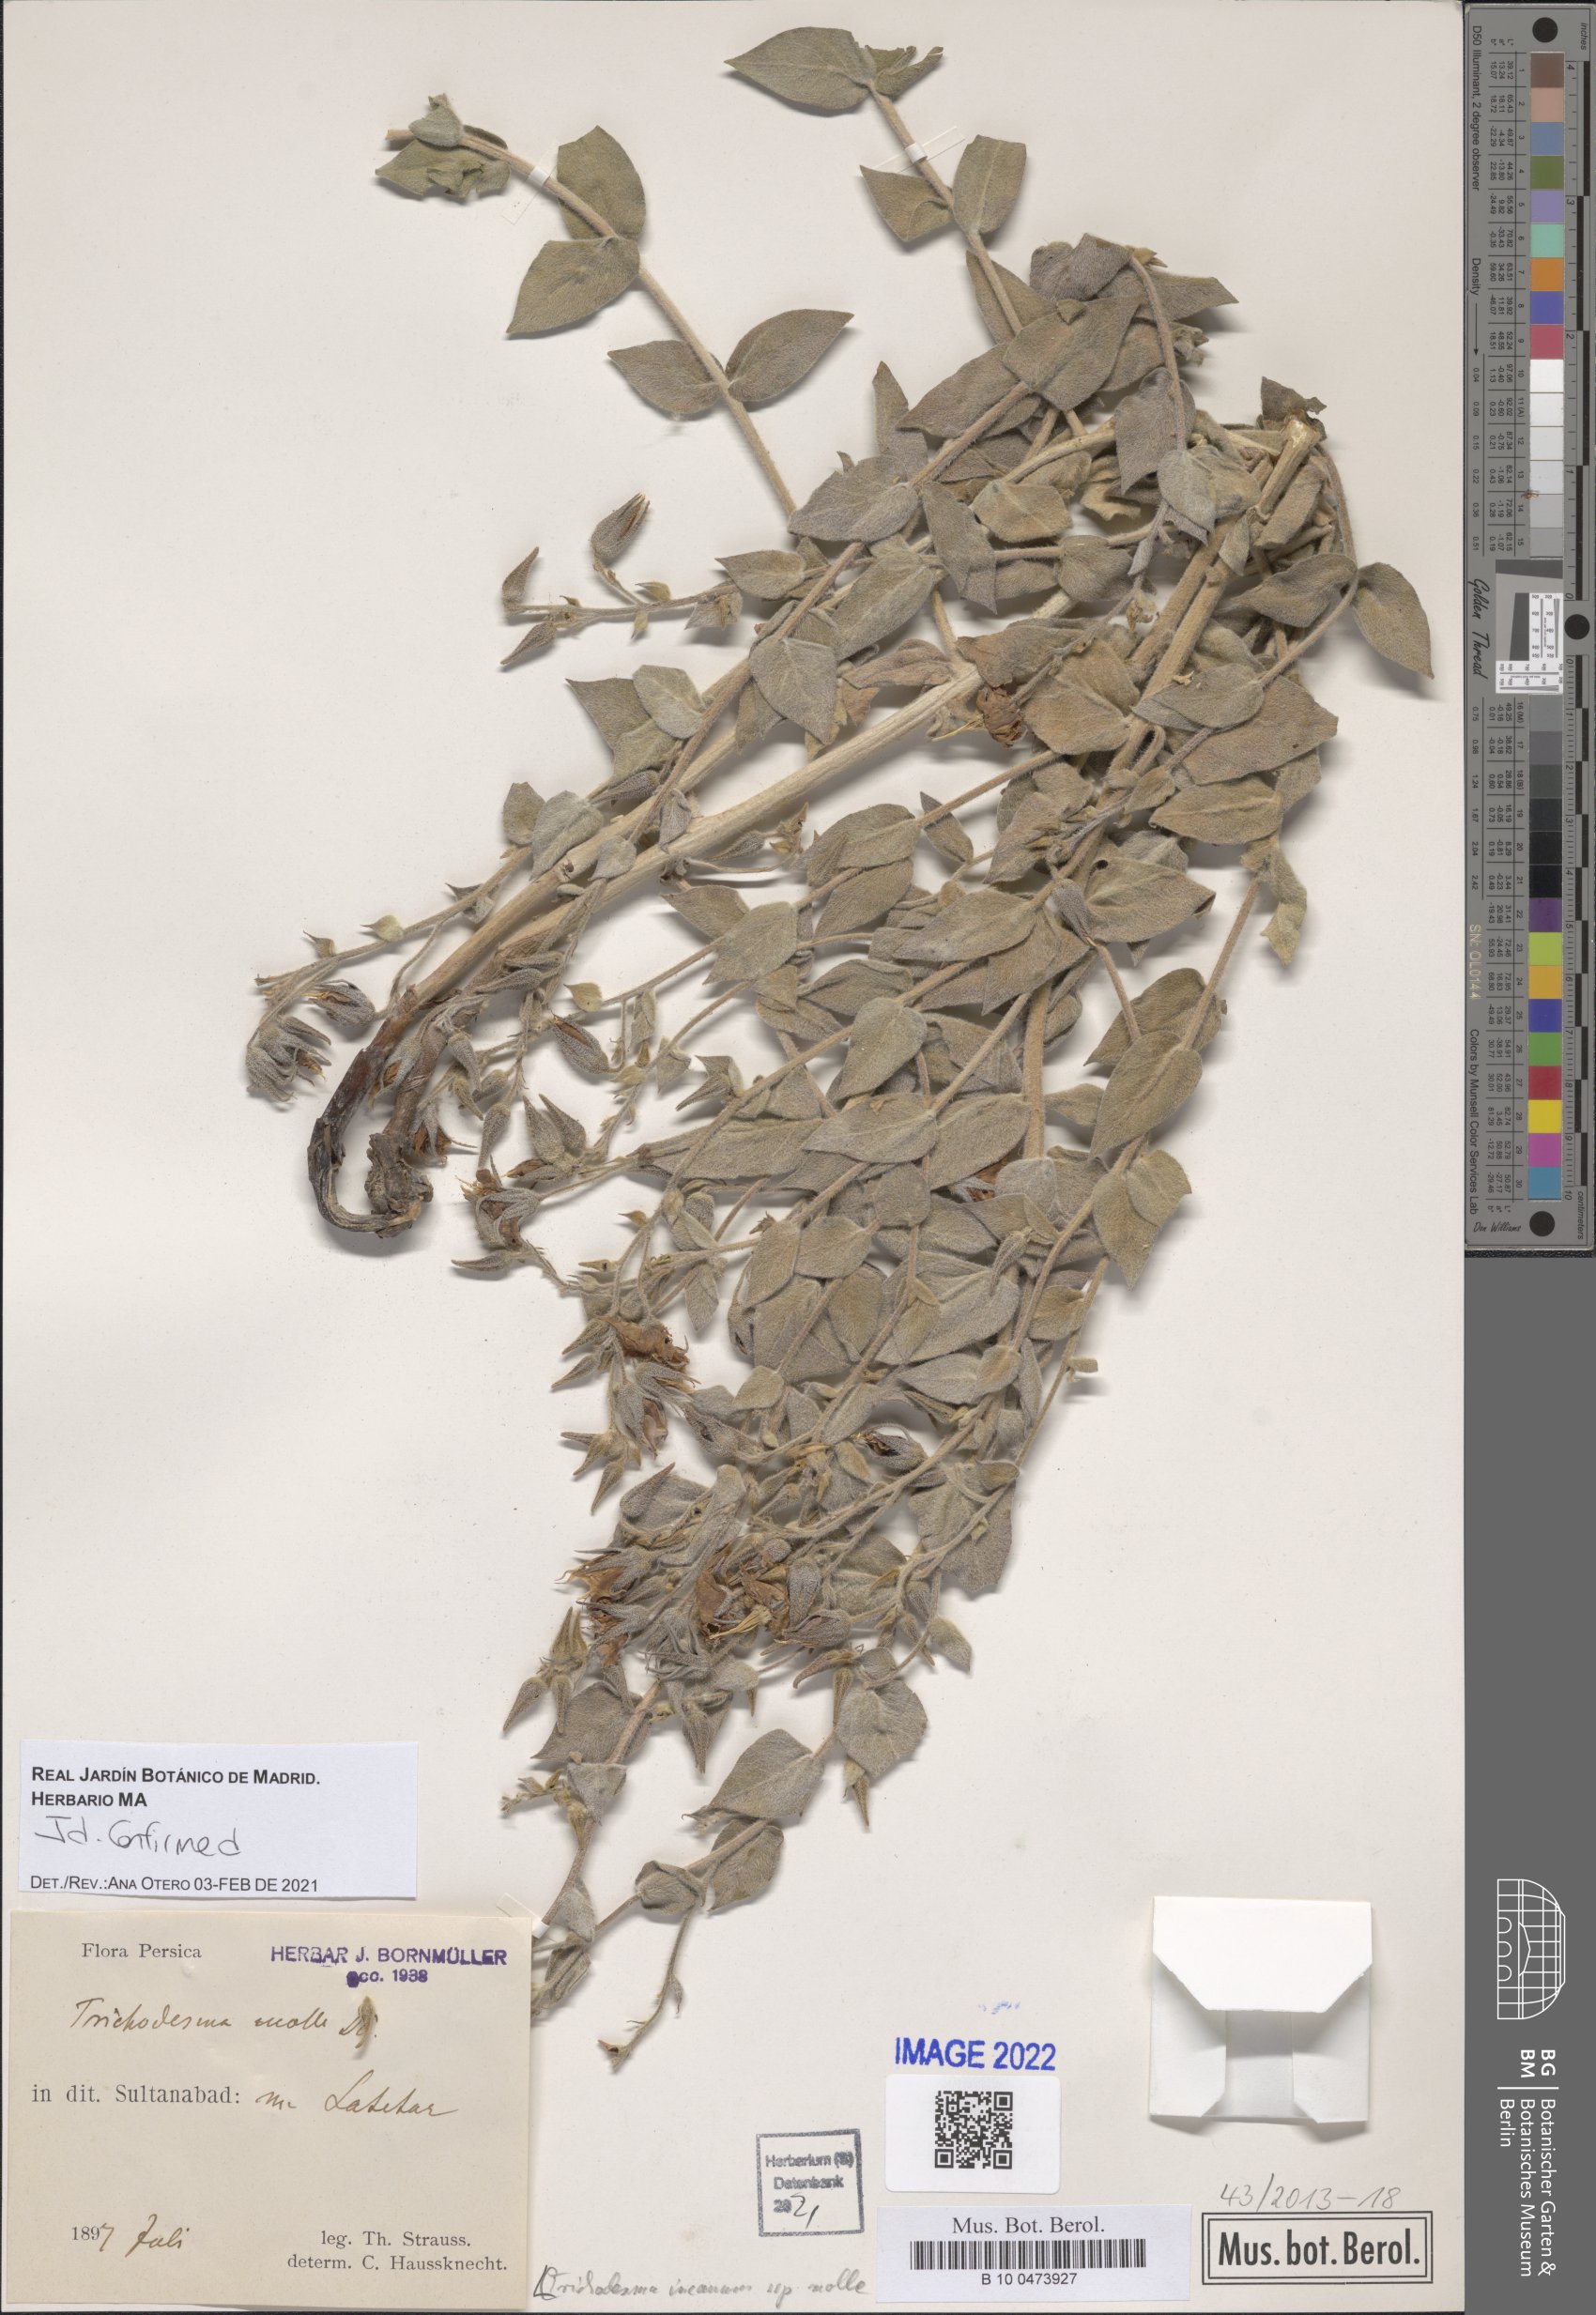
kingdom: Plantae
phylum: Tracheophyta
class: Magnoliopsida
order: Boraginales
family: Boraginaceae
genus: Trichodesma
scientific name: Trichodesma incanum
